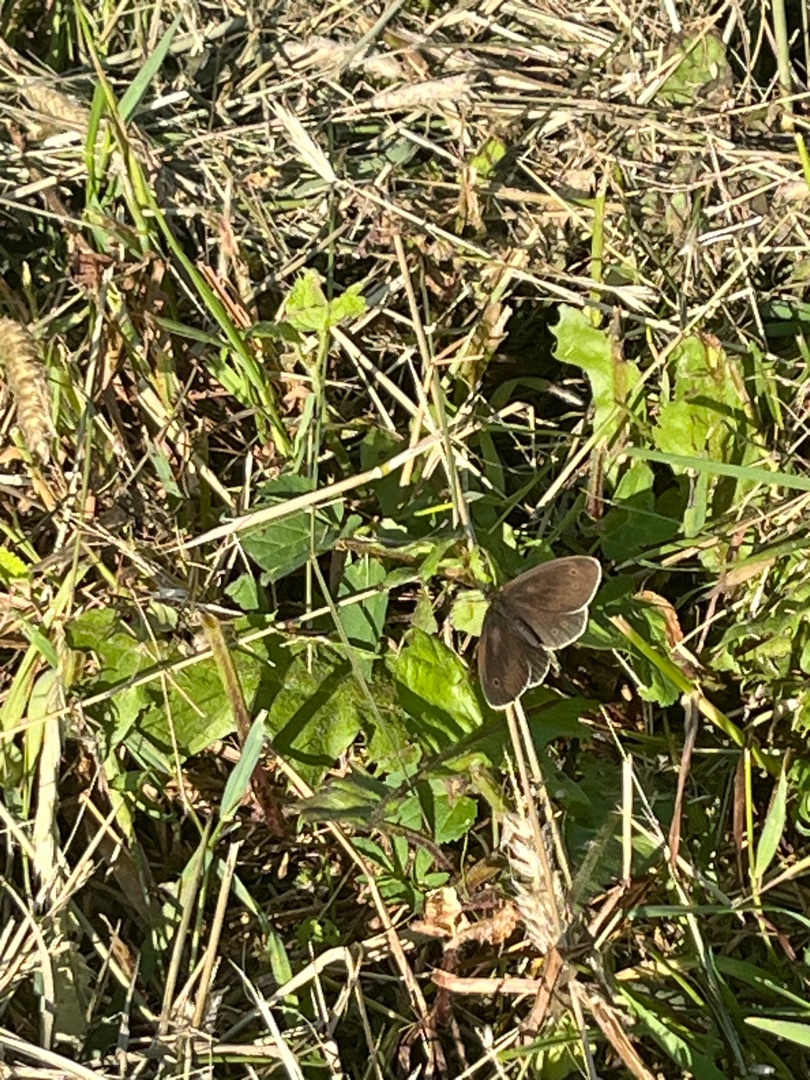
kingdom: Animalia
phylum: Arthropoda
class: Insecta
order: Lepidoptera
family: Nymphalidae
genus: Aphantopus
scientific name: Aphantopus hyperantus
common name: Engrandøje
